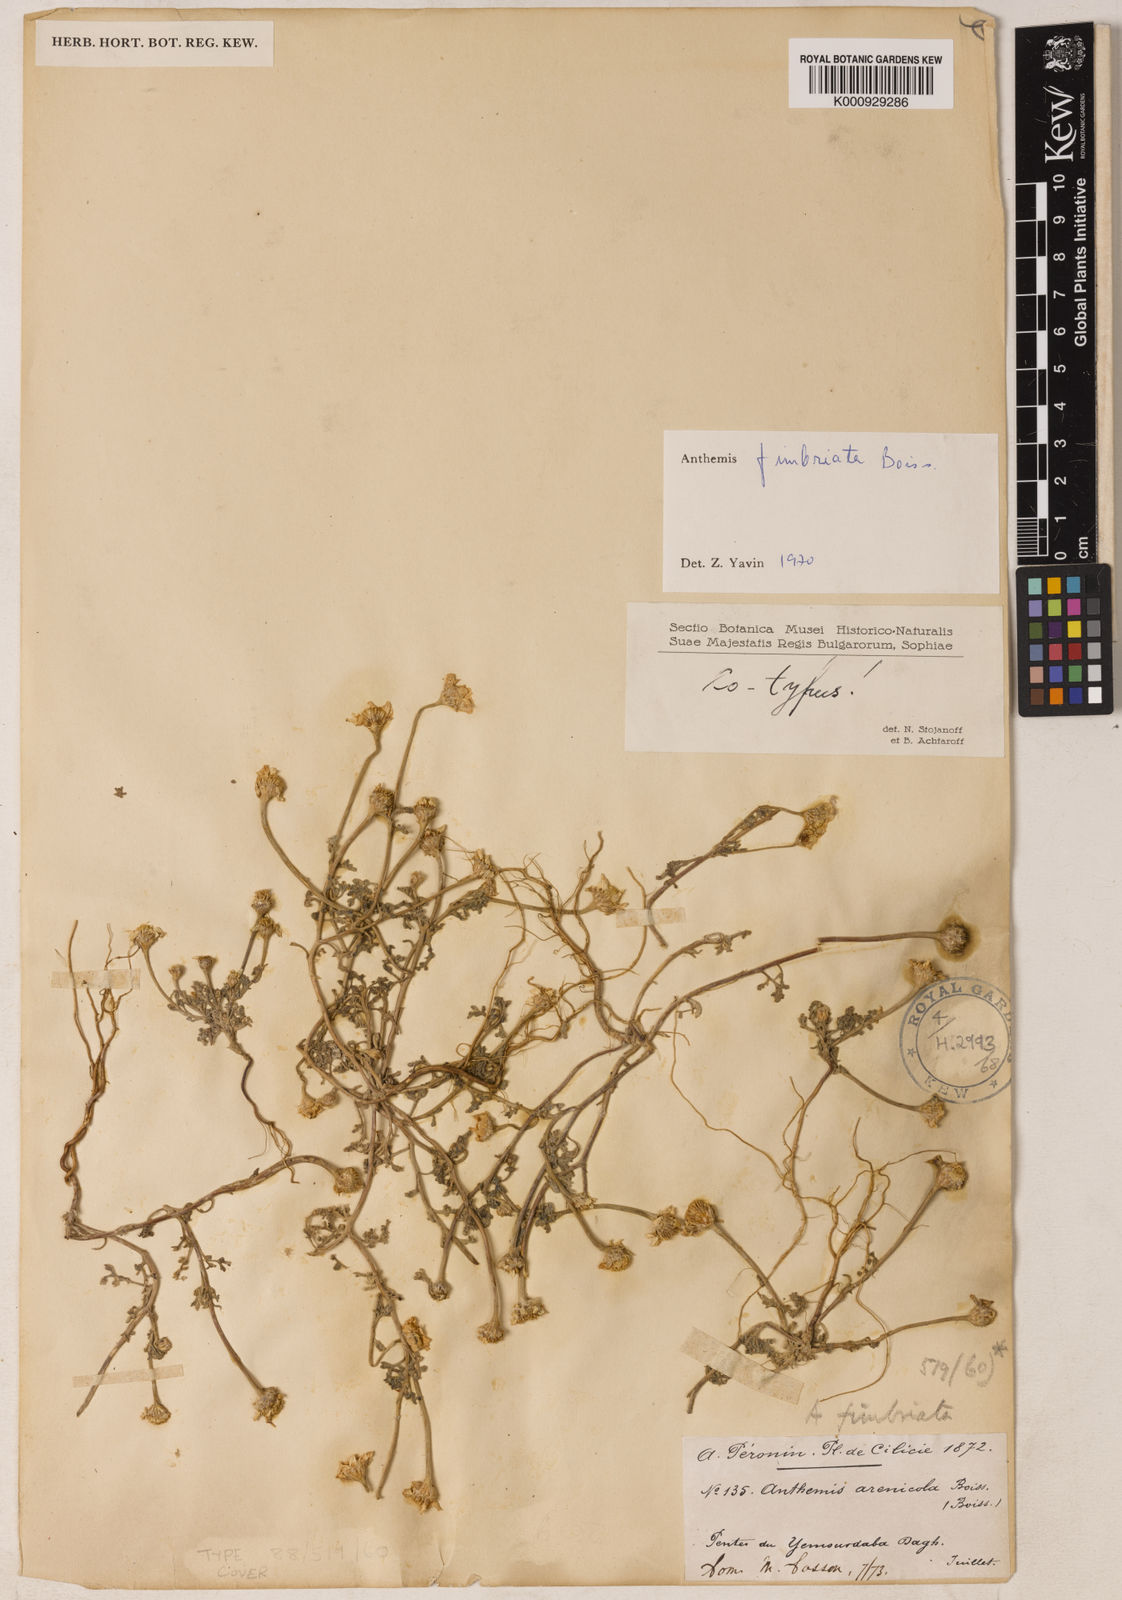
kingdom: Plantae
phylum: Tracheophyta
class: Magnoliopsida
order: Asterales
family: Asteraceae
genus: Anthemis
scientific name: Anthemis fimbriata
